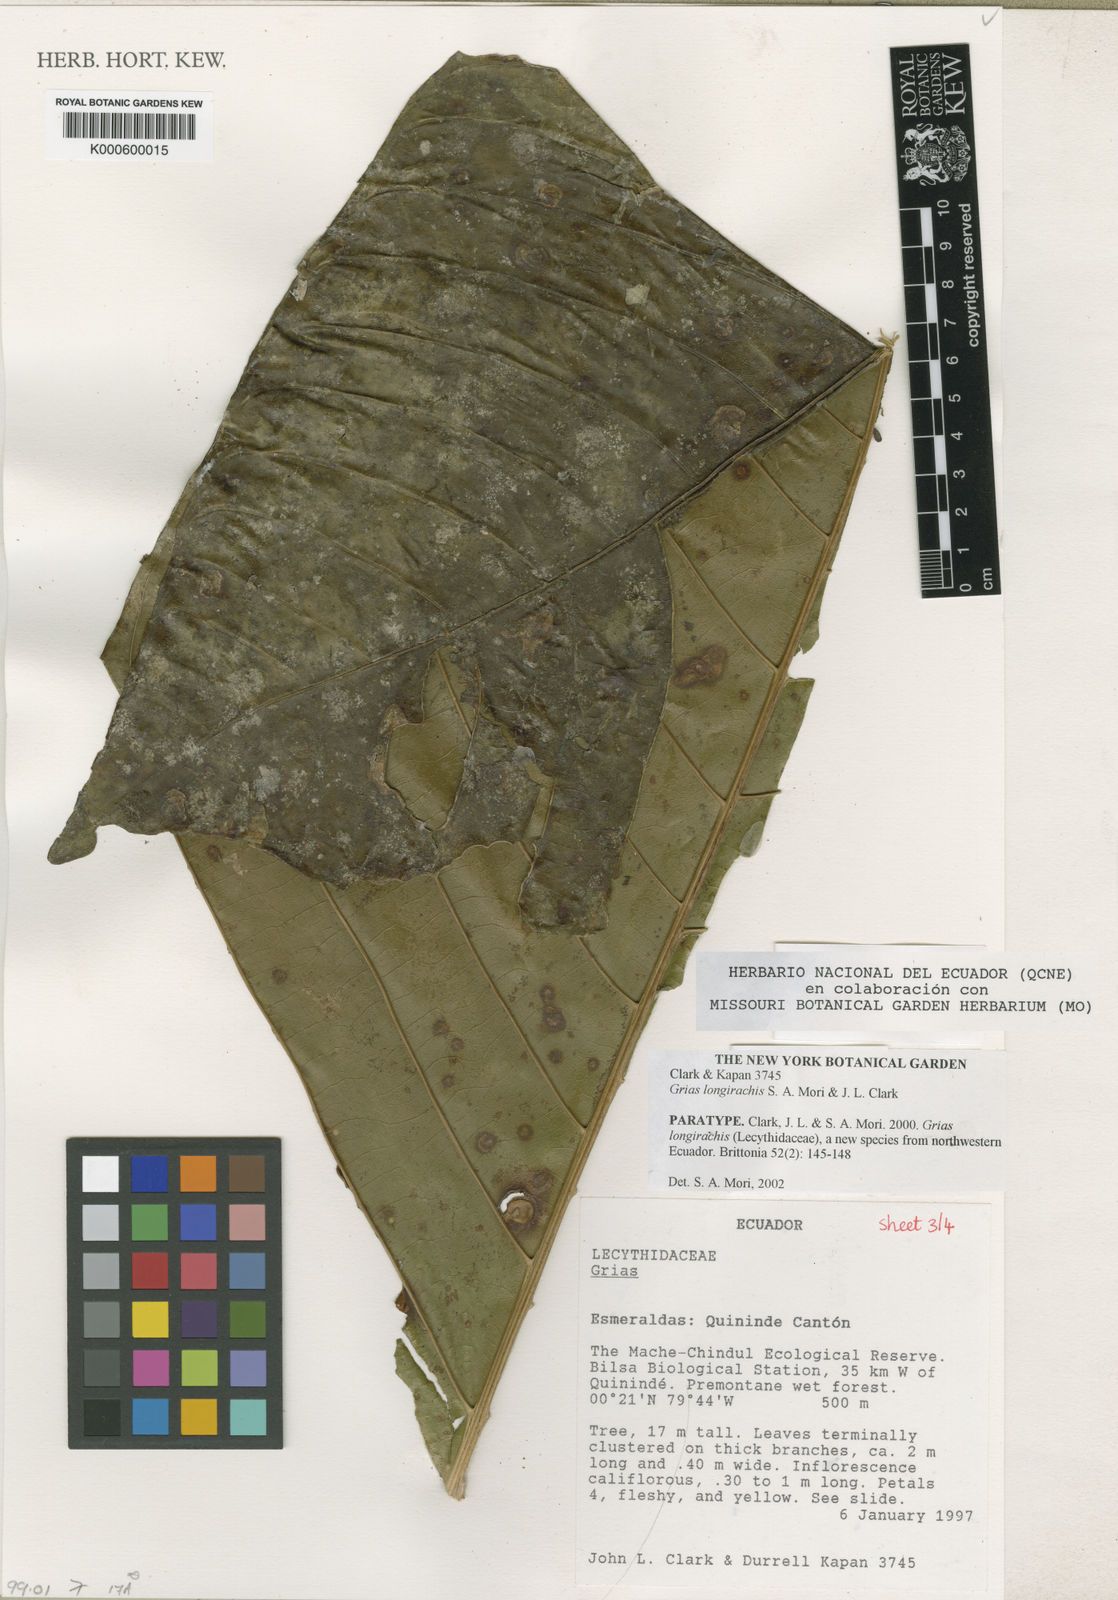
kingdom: Plantae
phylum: Tracheophyta
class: Magnoliopsida
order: Ericales
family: Lecythidaceae
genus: Grias
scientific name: Grias longirachis
